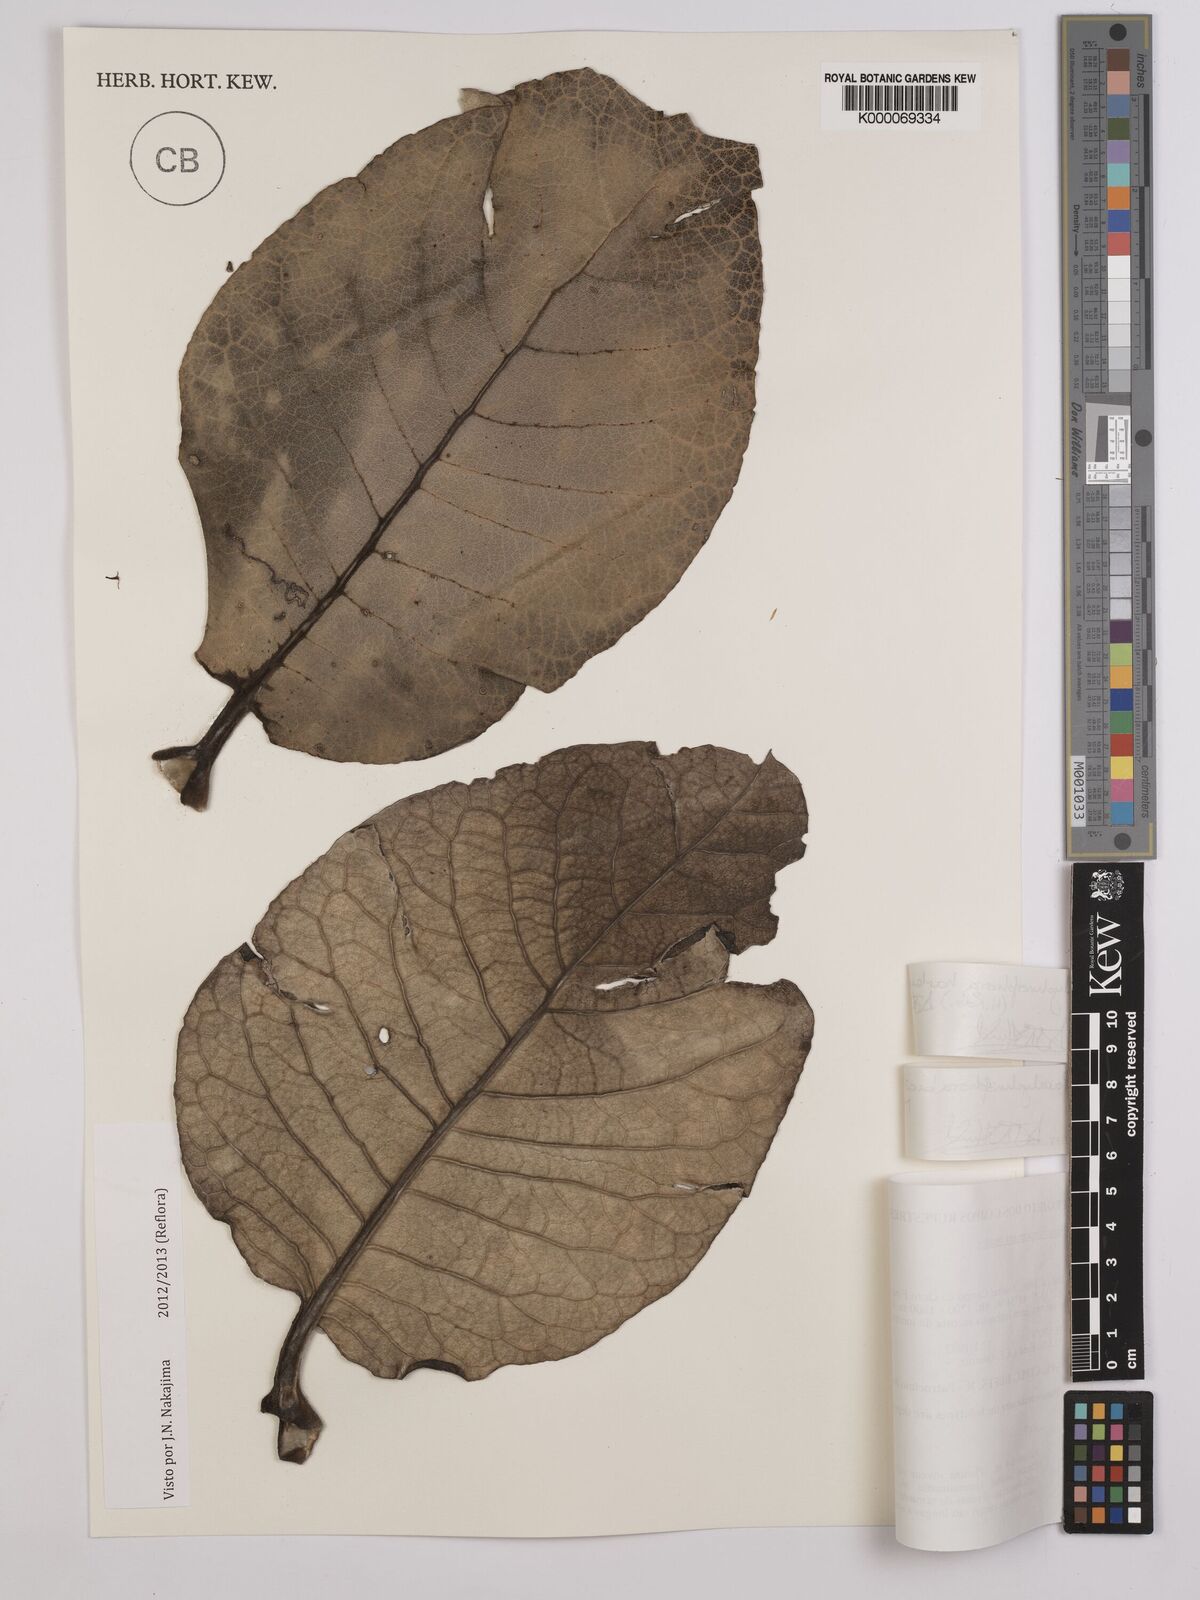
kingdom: Plantae
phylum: Tracheophyta
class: Magnoliopsida
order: Asterales
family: Asteraceae
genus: Paralychnophora
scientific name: Paralychnophora harleyi
